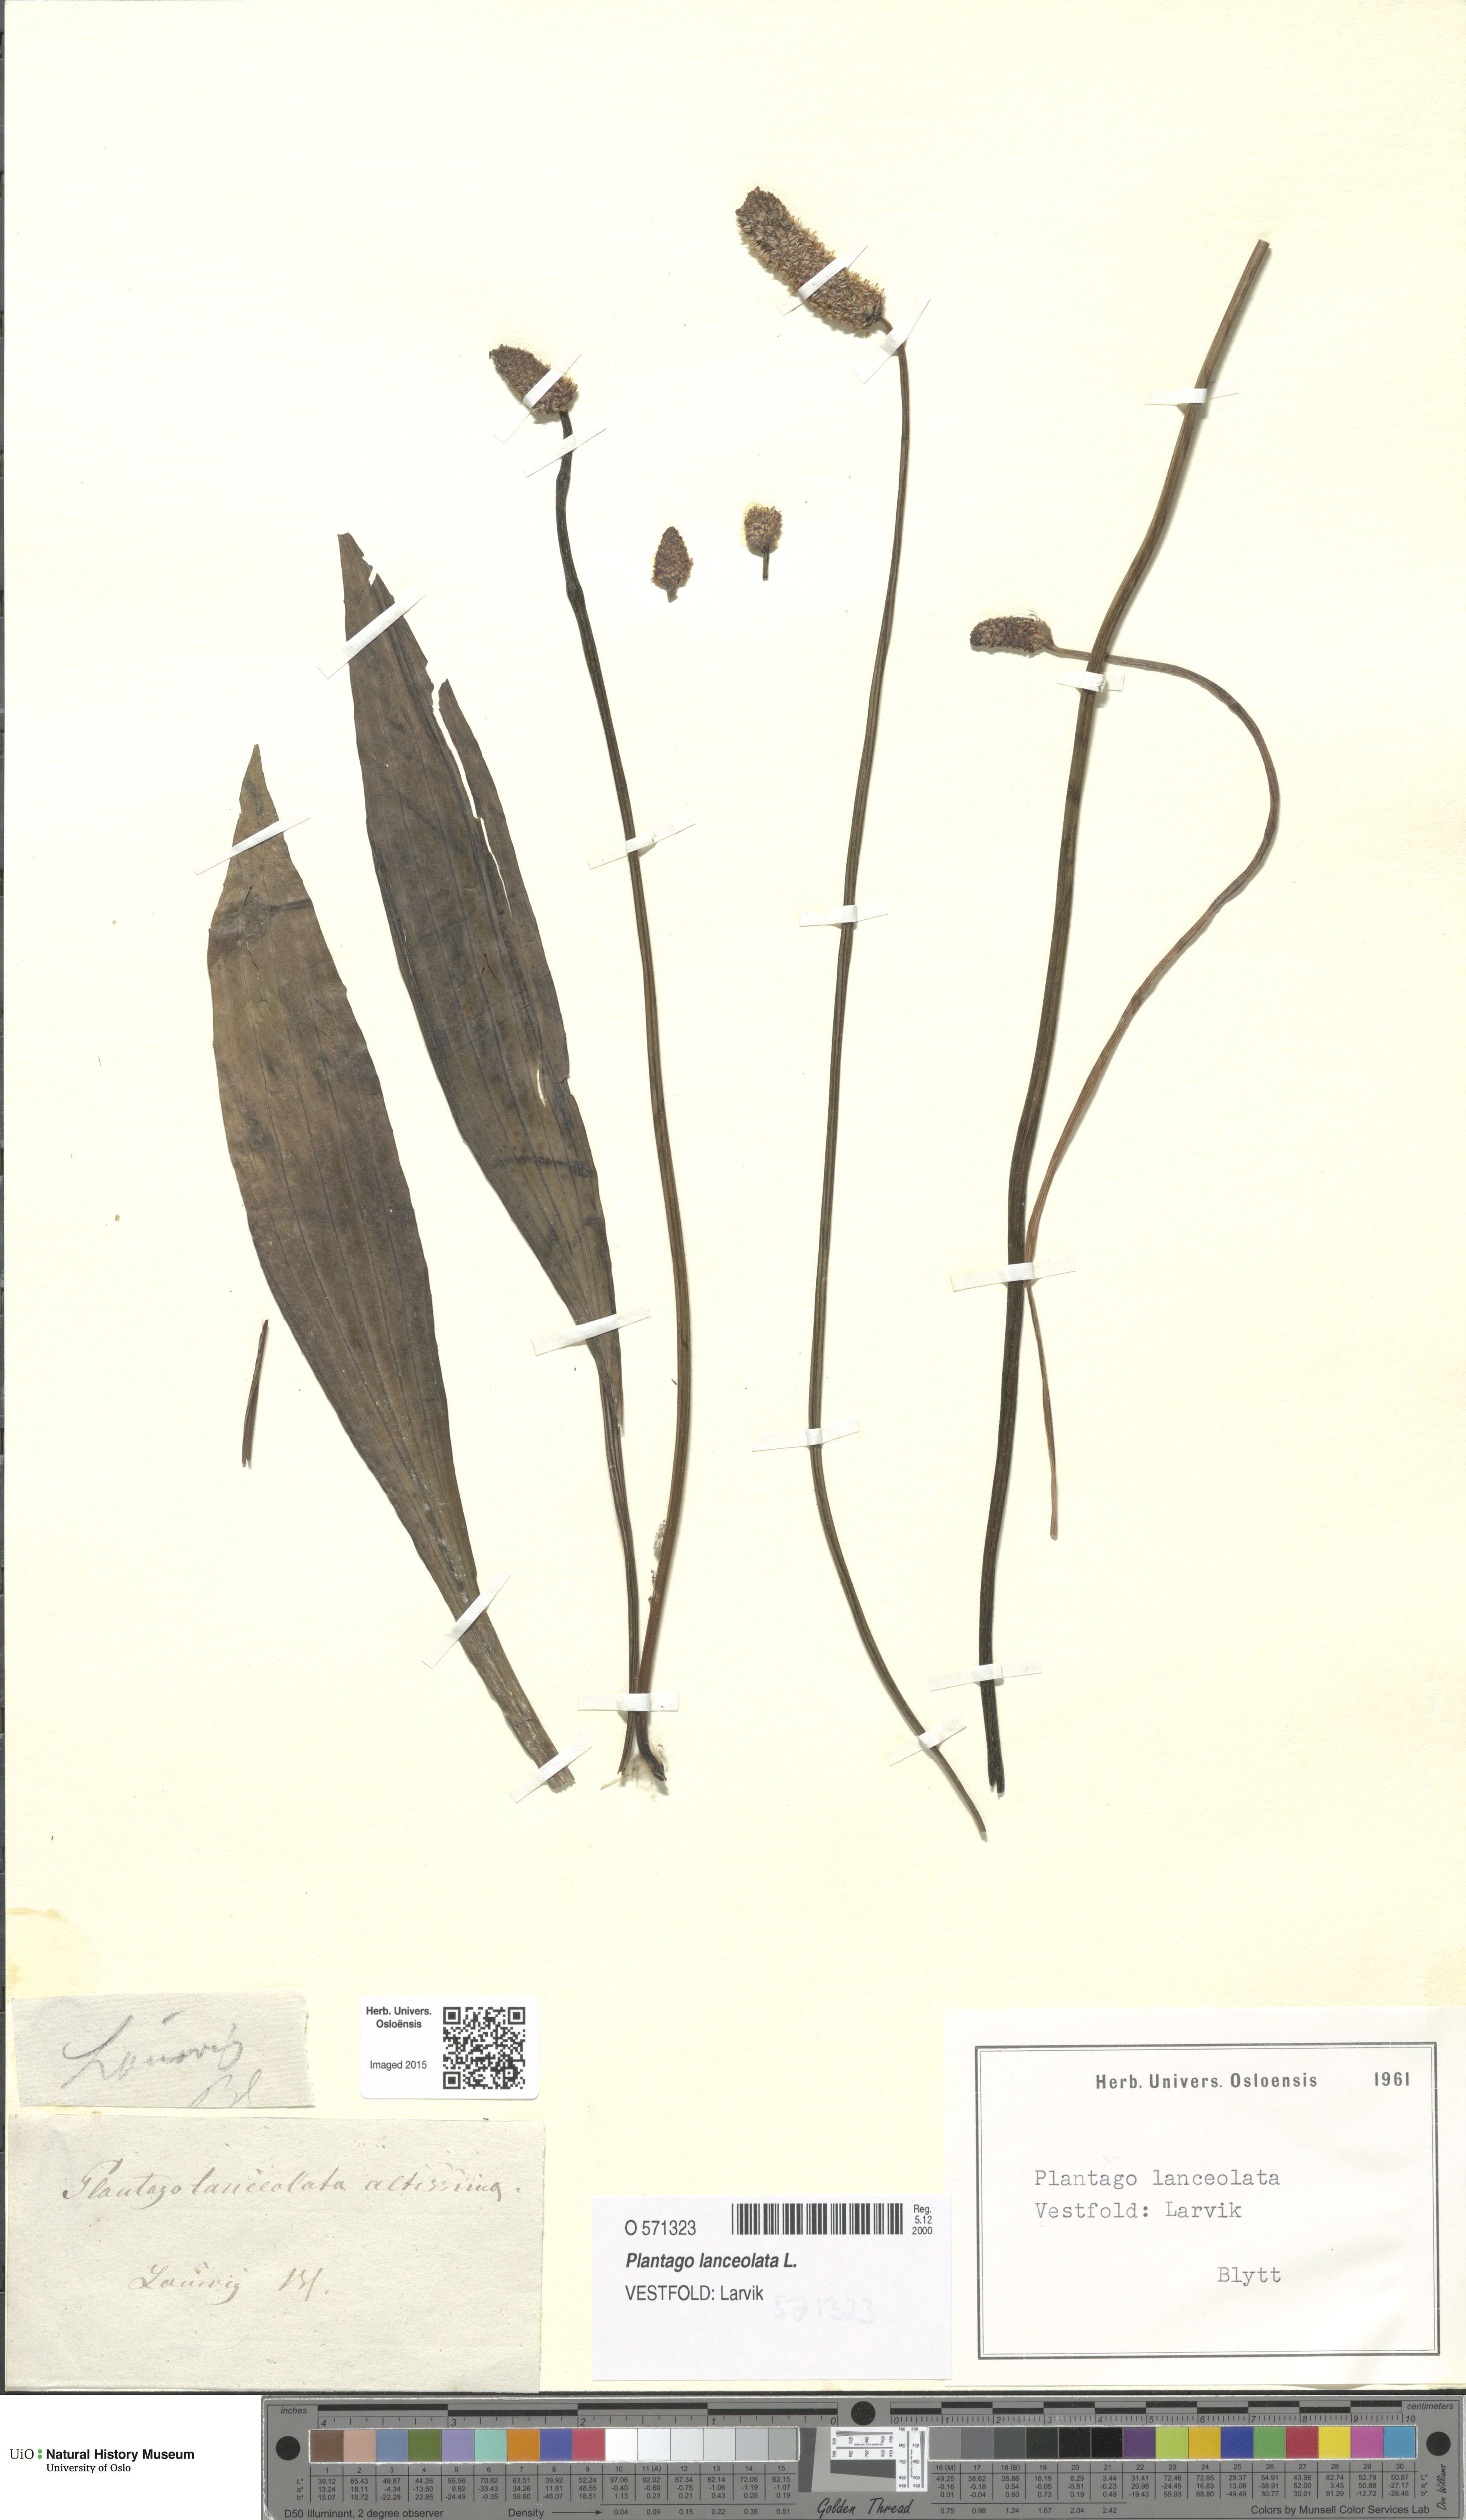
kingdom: Plantae
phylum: Tracheophyta
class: Magnoliopsida
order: Lamiales
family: Plantaginaceae
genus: Plantago
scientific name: Plantago lanceolata
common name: Ribwort plantain
